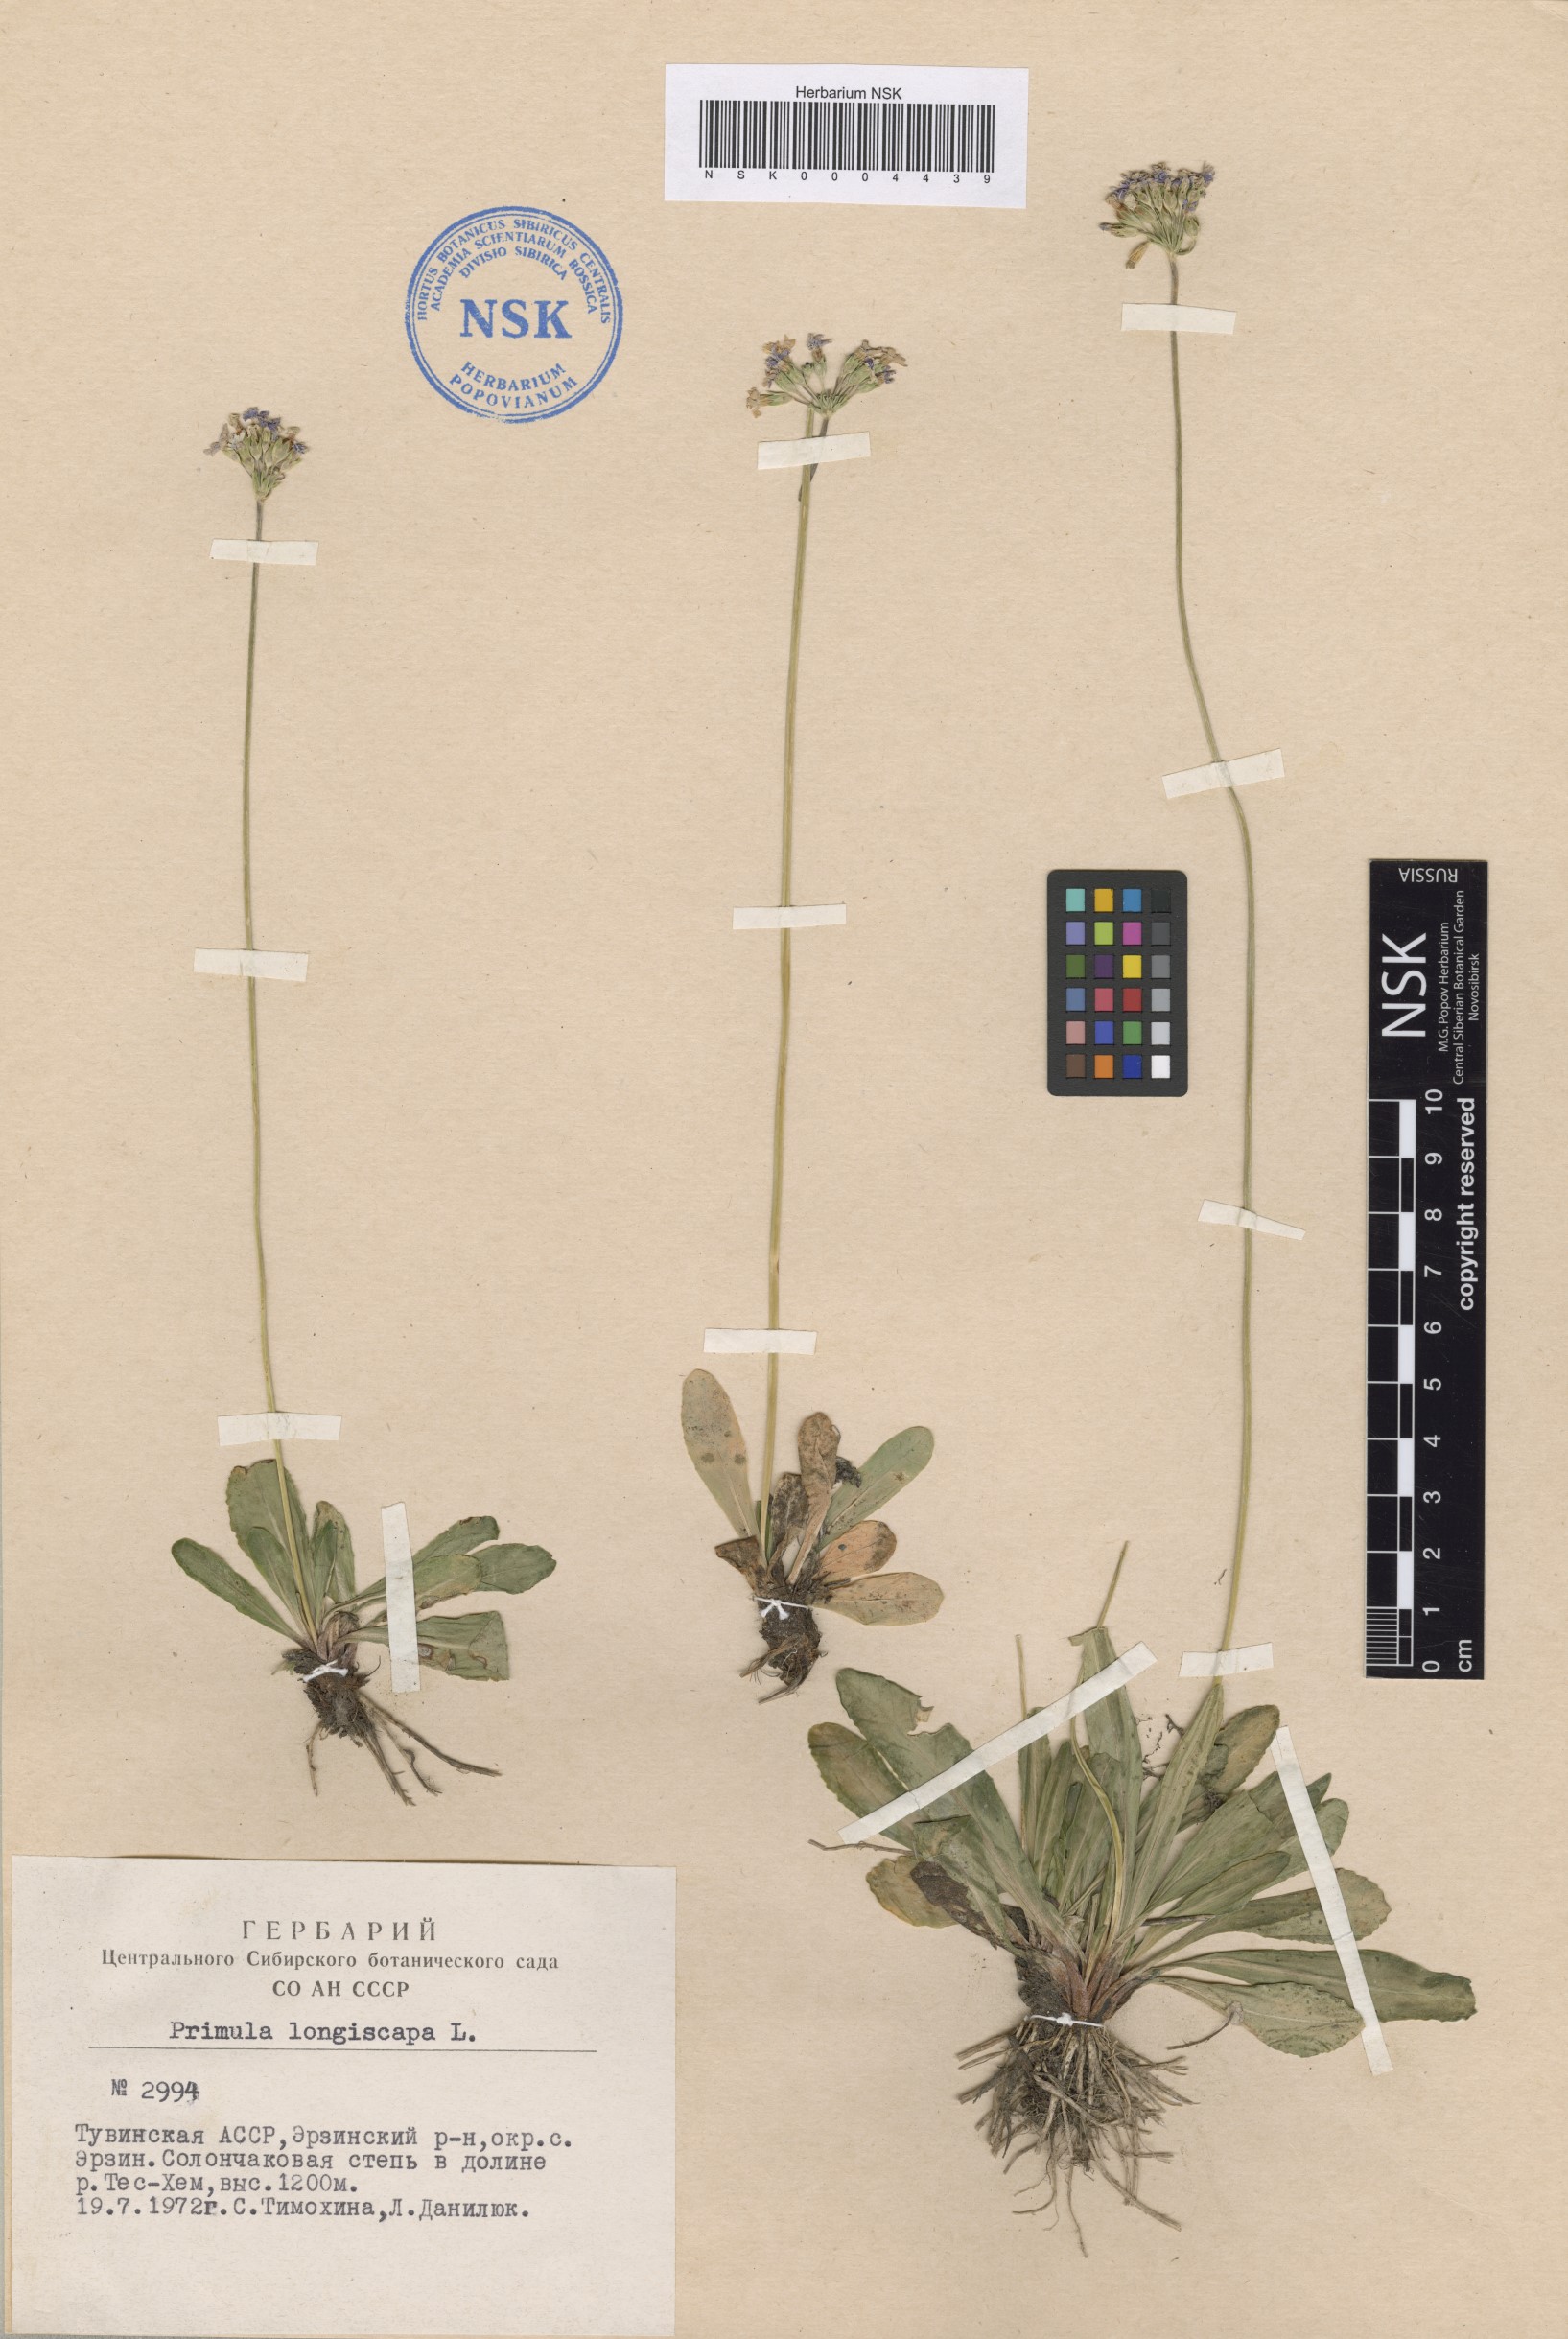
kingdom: Plantae
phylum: Tracheophyta
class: Magnoliopsida
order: Ericales
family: Primulaceae
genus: Primula
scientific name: Primula longiscapa
